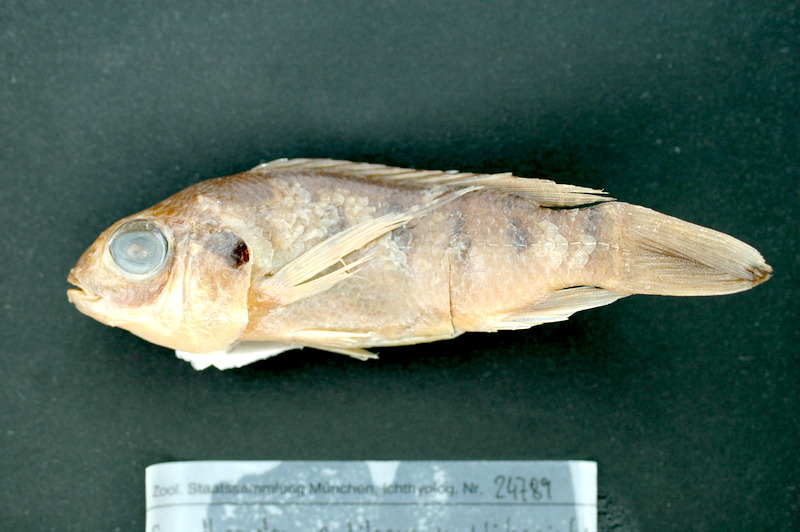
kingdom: Animalia
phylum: Chordata
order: Perciformes
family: Cichlidae
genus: Sarotherodon
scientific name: Sarotherodon galilaeus
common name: Mango tilapia
